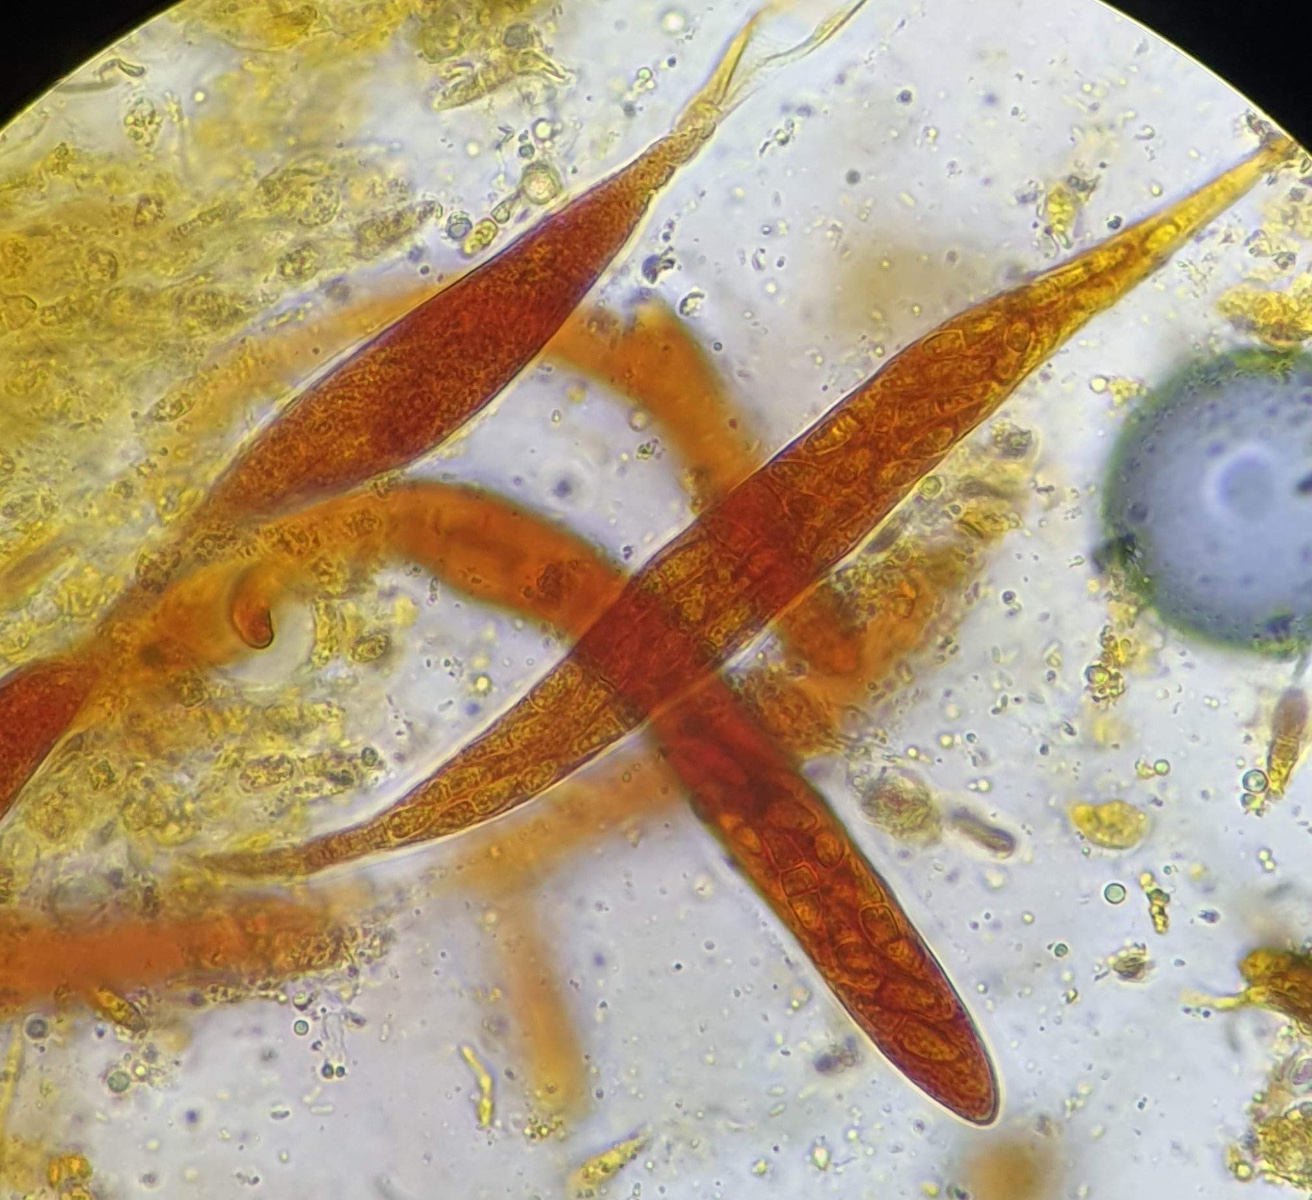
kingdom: Fungi
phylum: Ascomycota
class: Dothideomycetes
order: Dothideales
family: Dothioraceae
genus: Delphinella
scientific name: Delphinella
